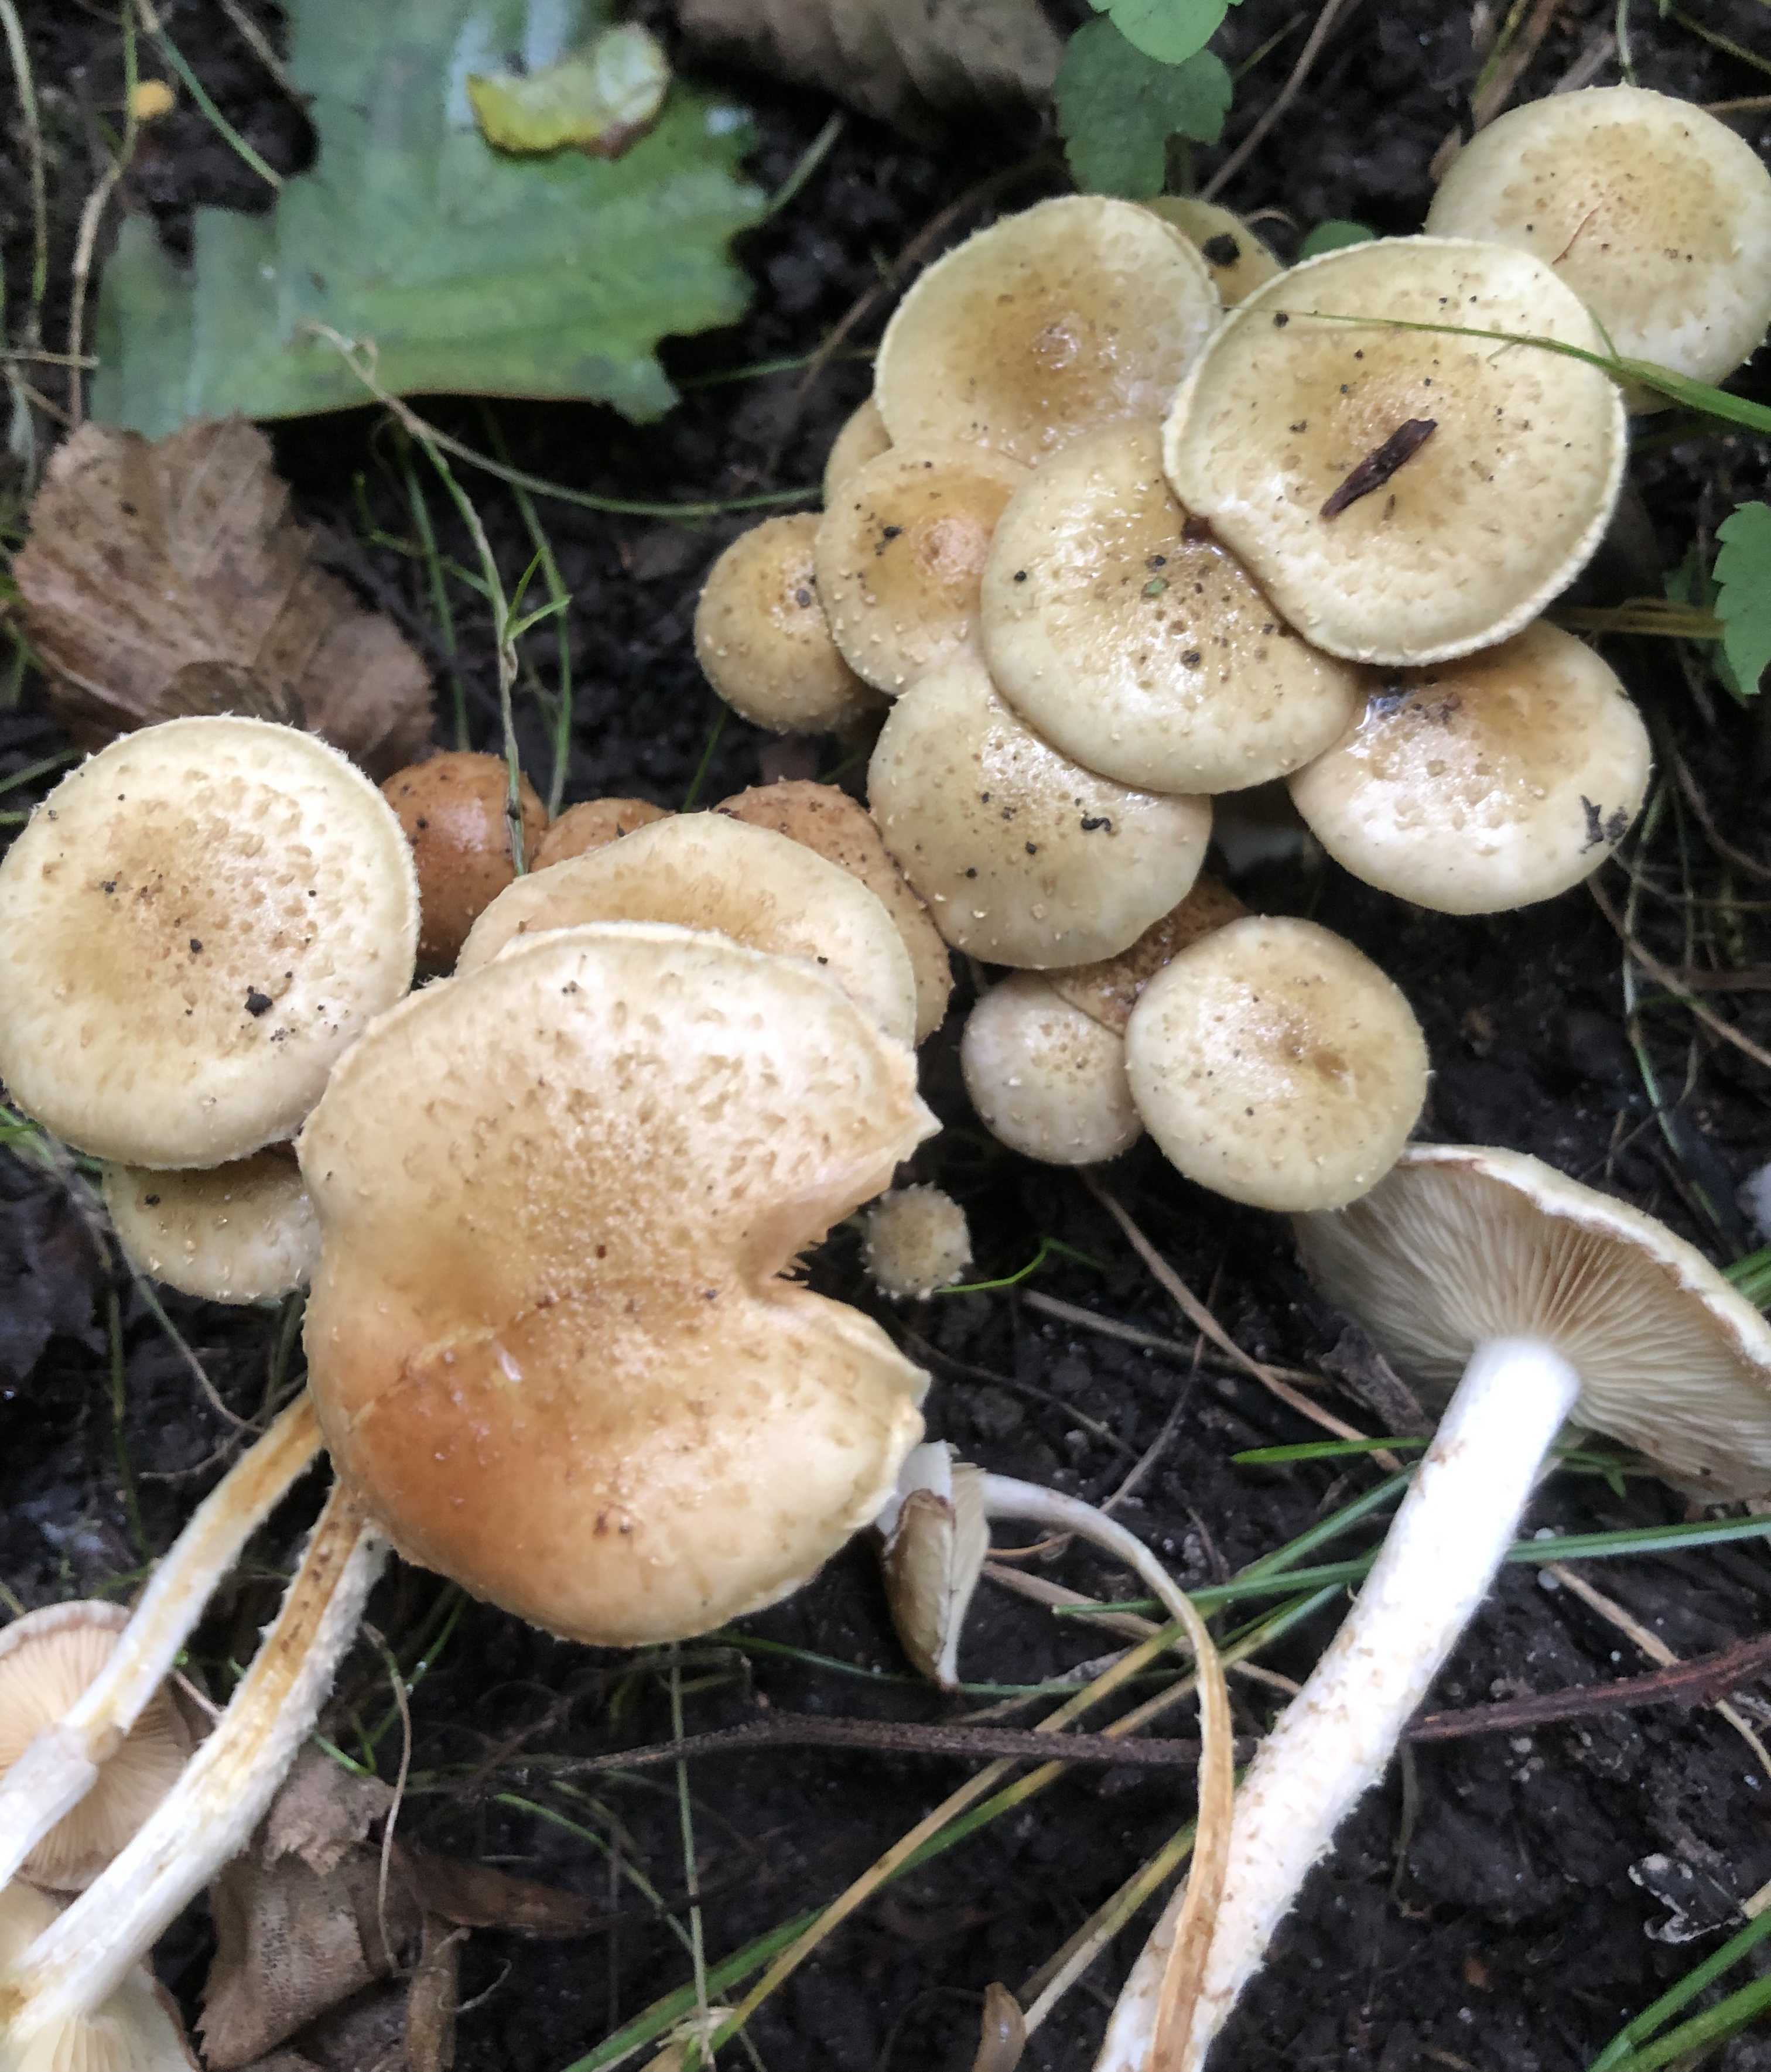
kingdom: Fungi
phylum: Basidiomycota
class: Agaricomycetes
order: Agaricales
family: Strophariaceae
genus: Pholiota
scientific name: Pholiota gummosa
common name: grøngul skælhat
